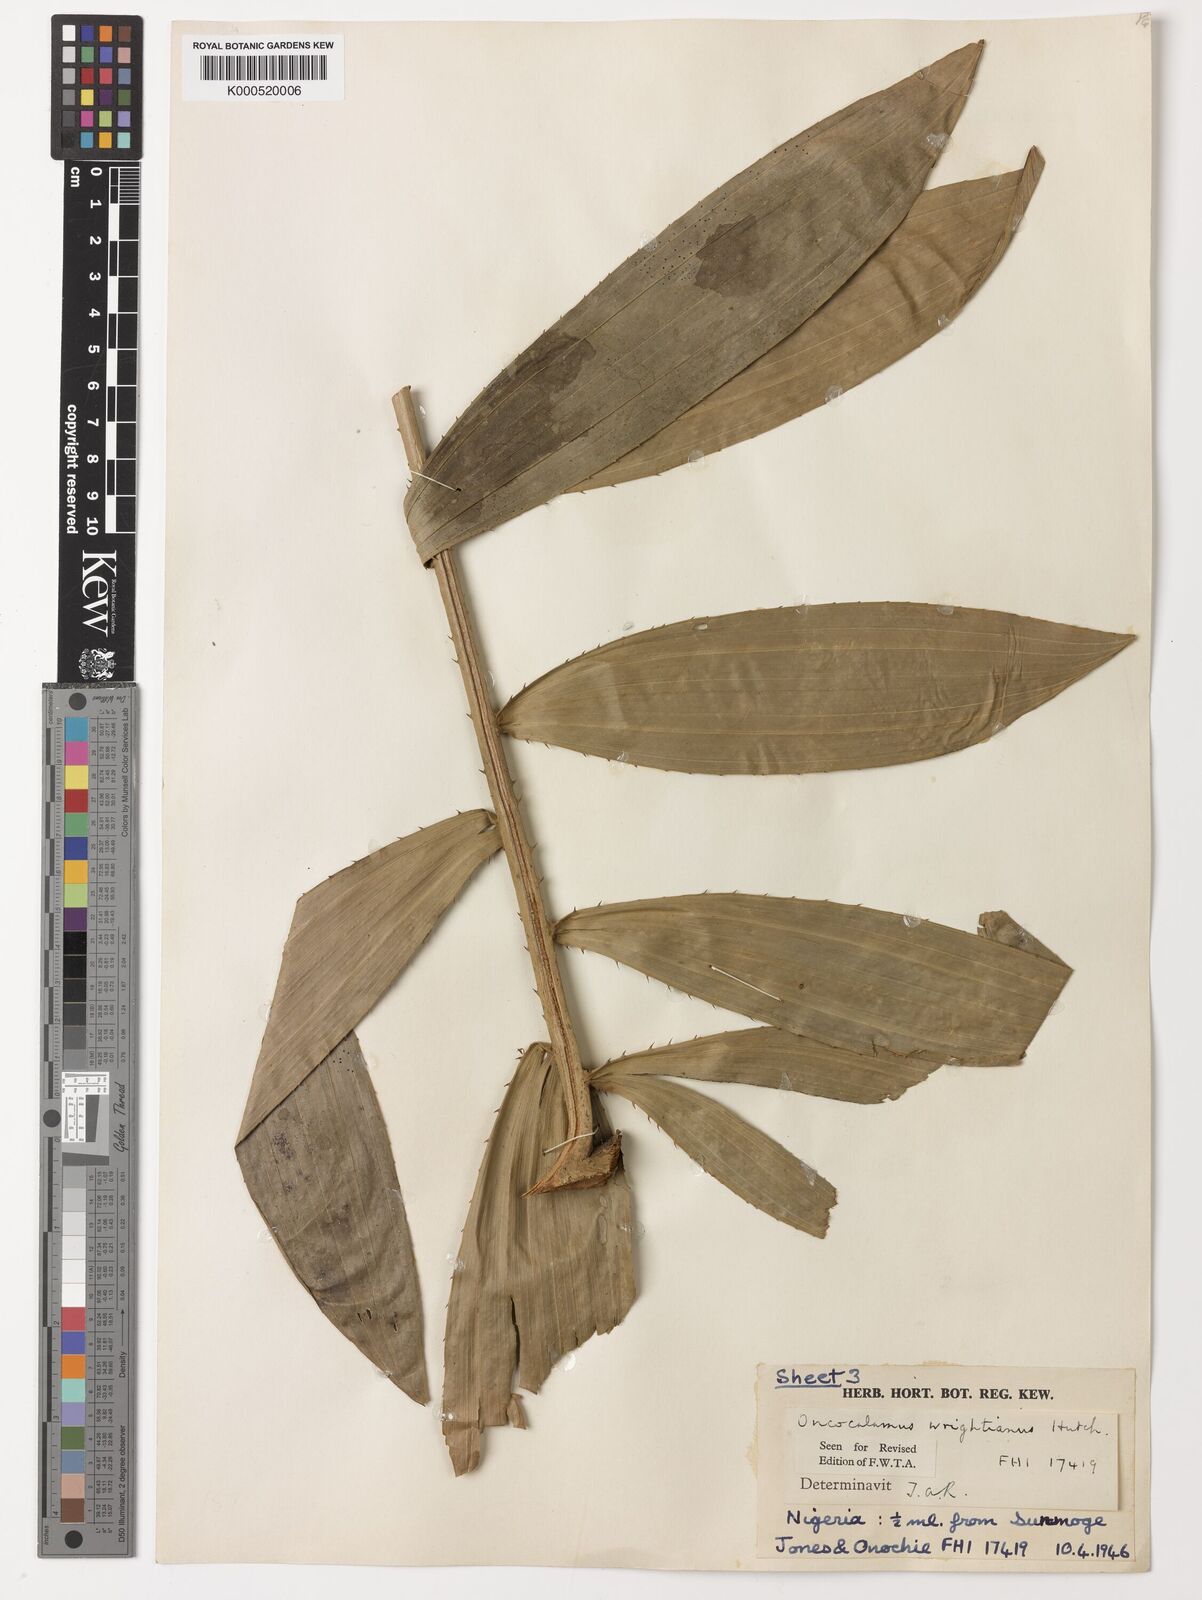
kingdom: Plantae
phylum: Tracheophyta
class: Liliopsida
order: Arecales
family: Arecaceae
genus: Oncocalamus
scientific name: Oncocalamus wrightianus
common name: Rattan
